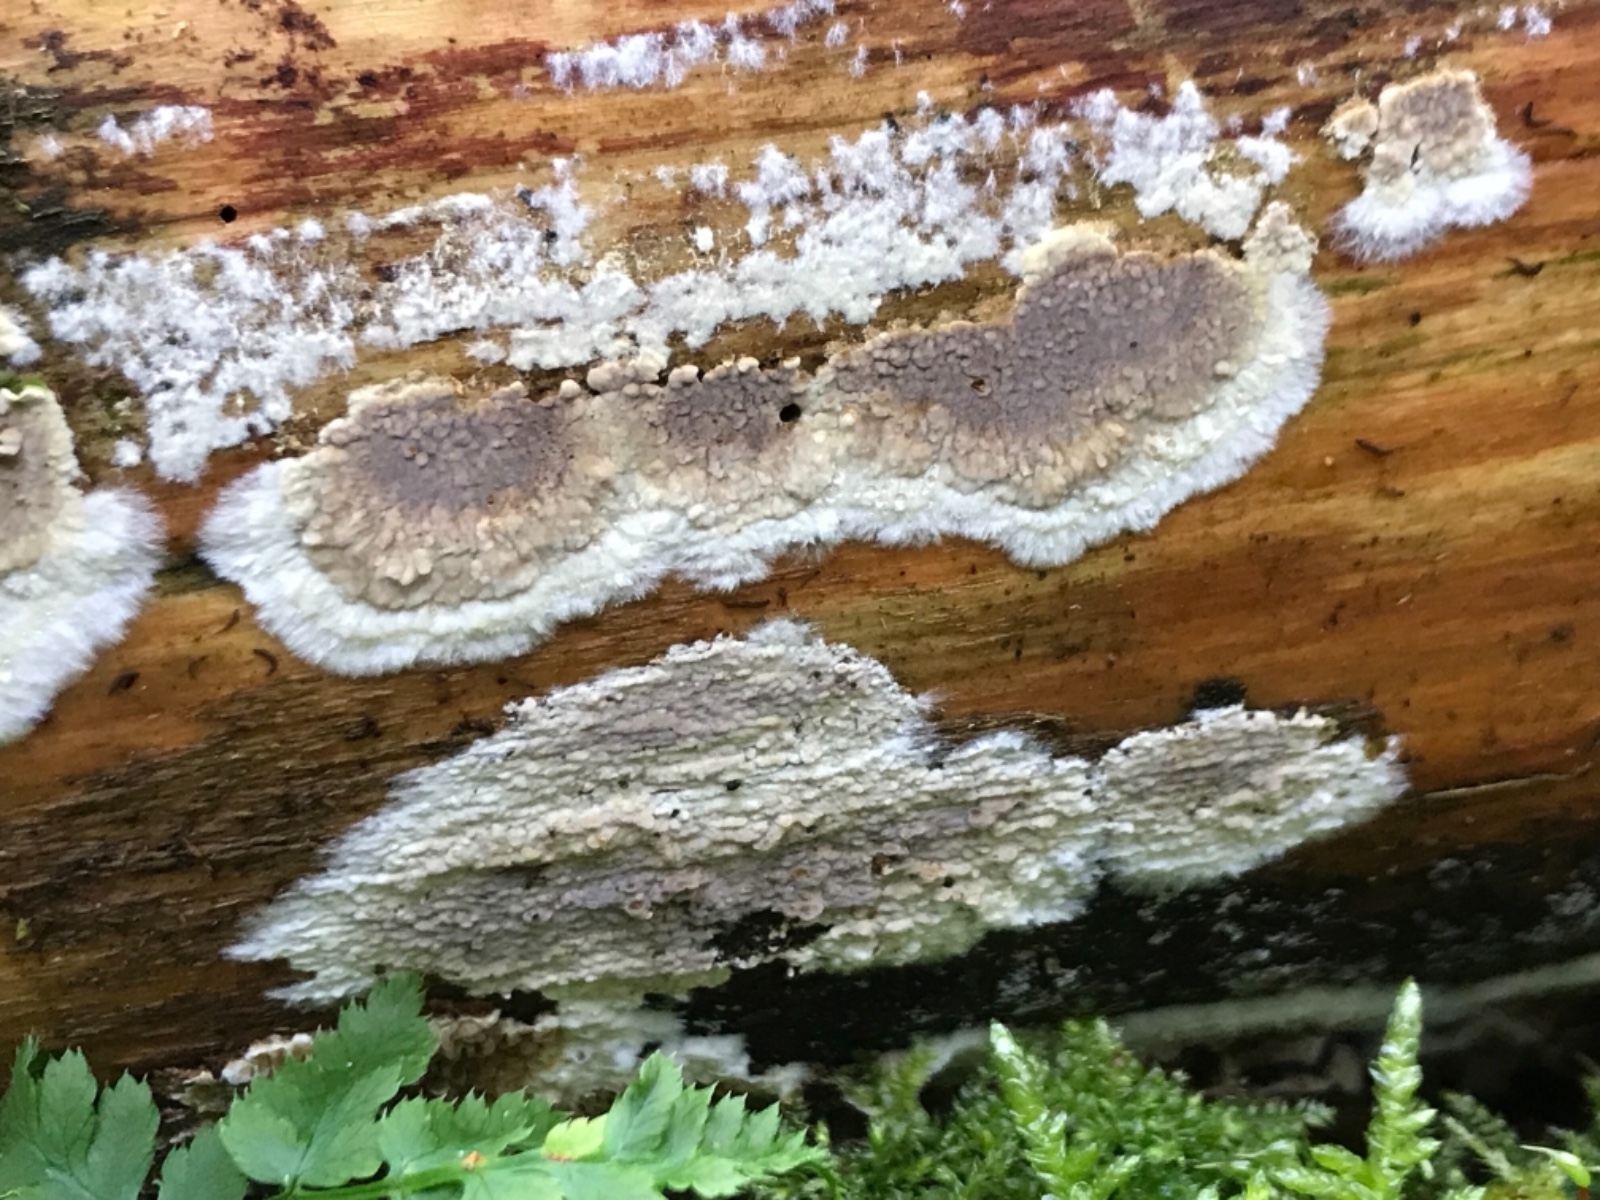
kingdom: Fungi
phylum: Basidiomycota
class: Agaricomycetes
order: Boletales
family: Coniophoraceae
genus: Coniophora
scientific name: Coniophora puteana
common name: gul tømmersvamp
